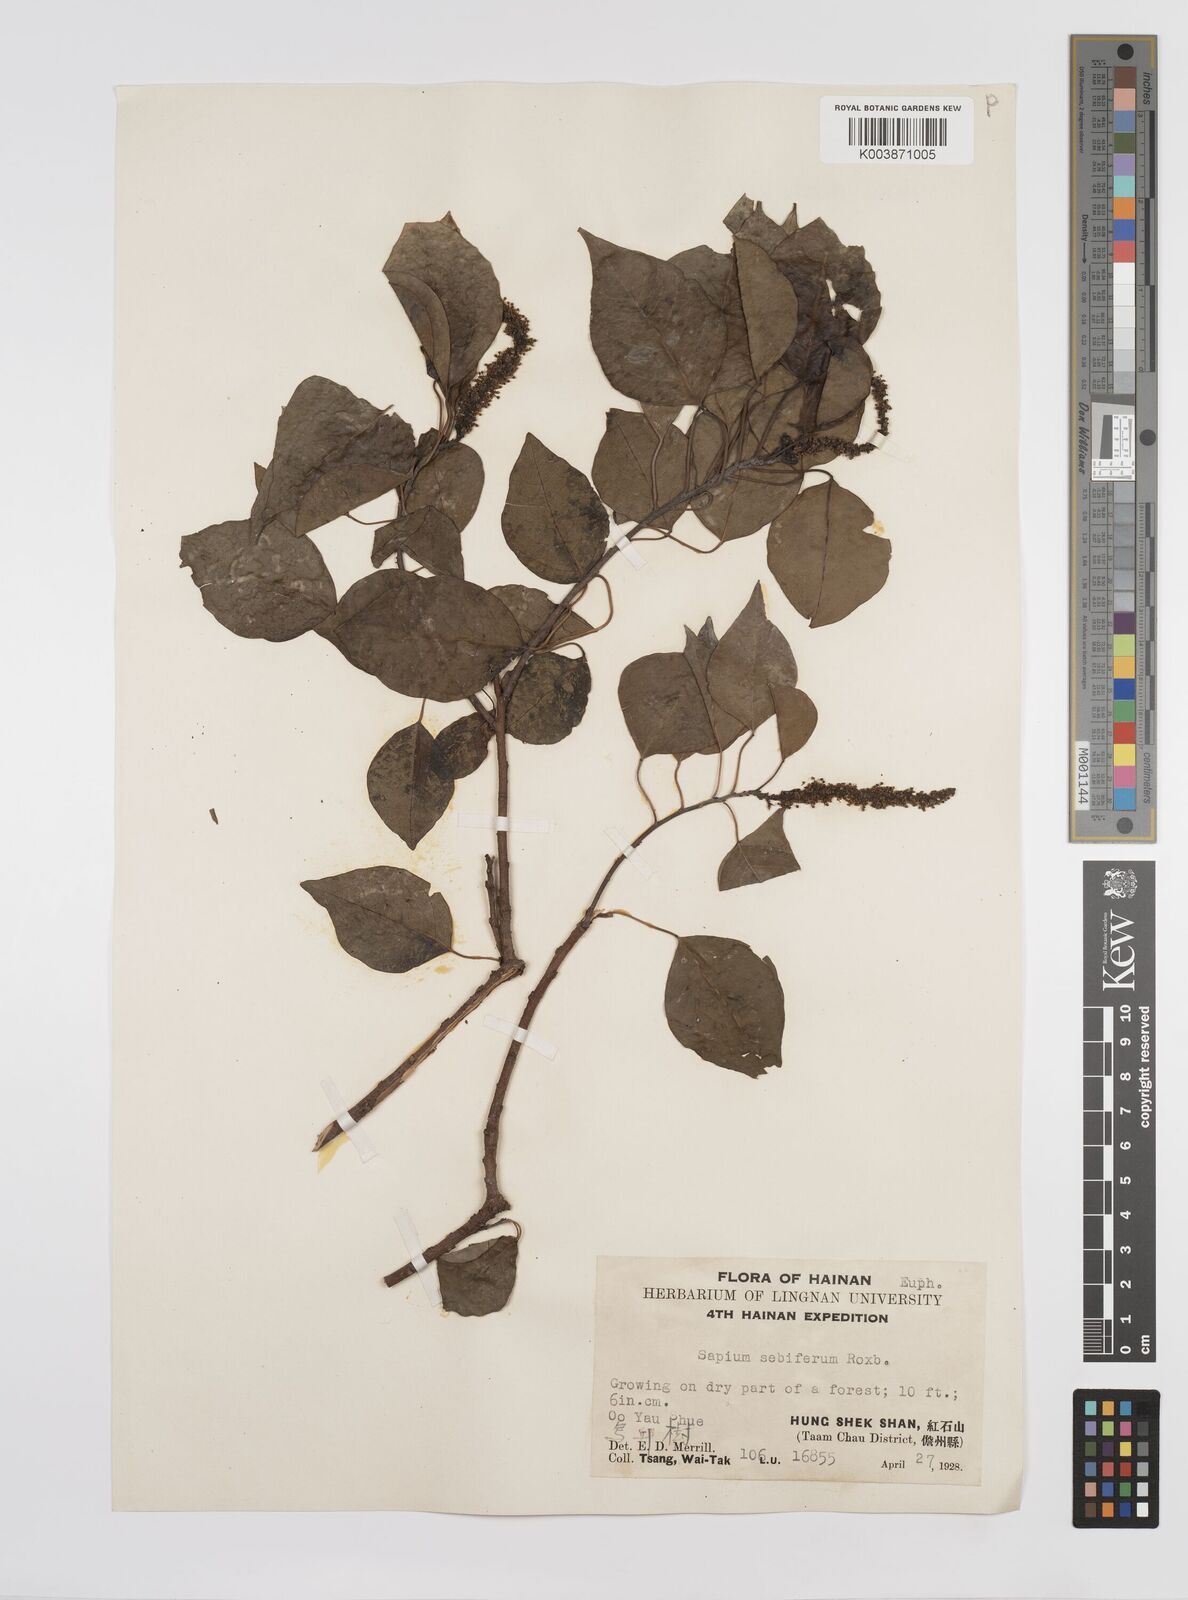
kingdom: Plantae
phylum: Tracheophyta
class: Magnoliopsida
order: Malpighiales
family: Euphorbiaceae
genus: Triadica
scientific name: Triadica sebifera
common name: Chinese tallow
